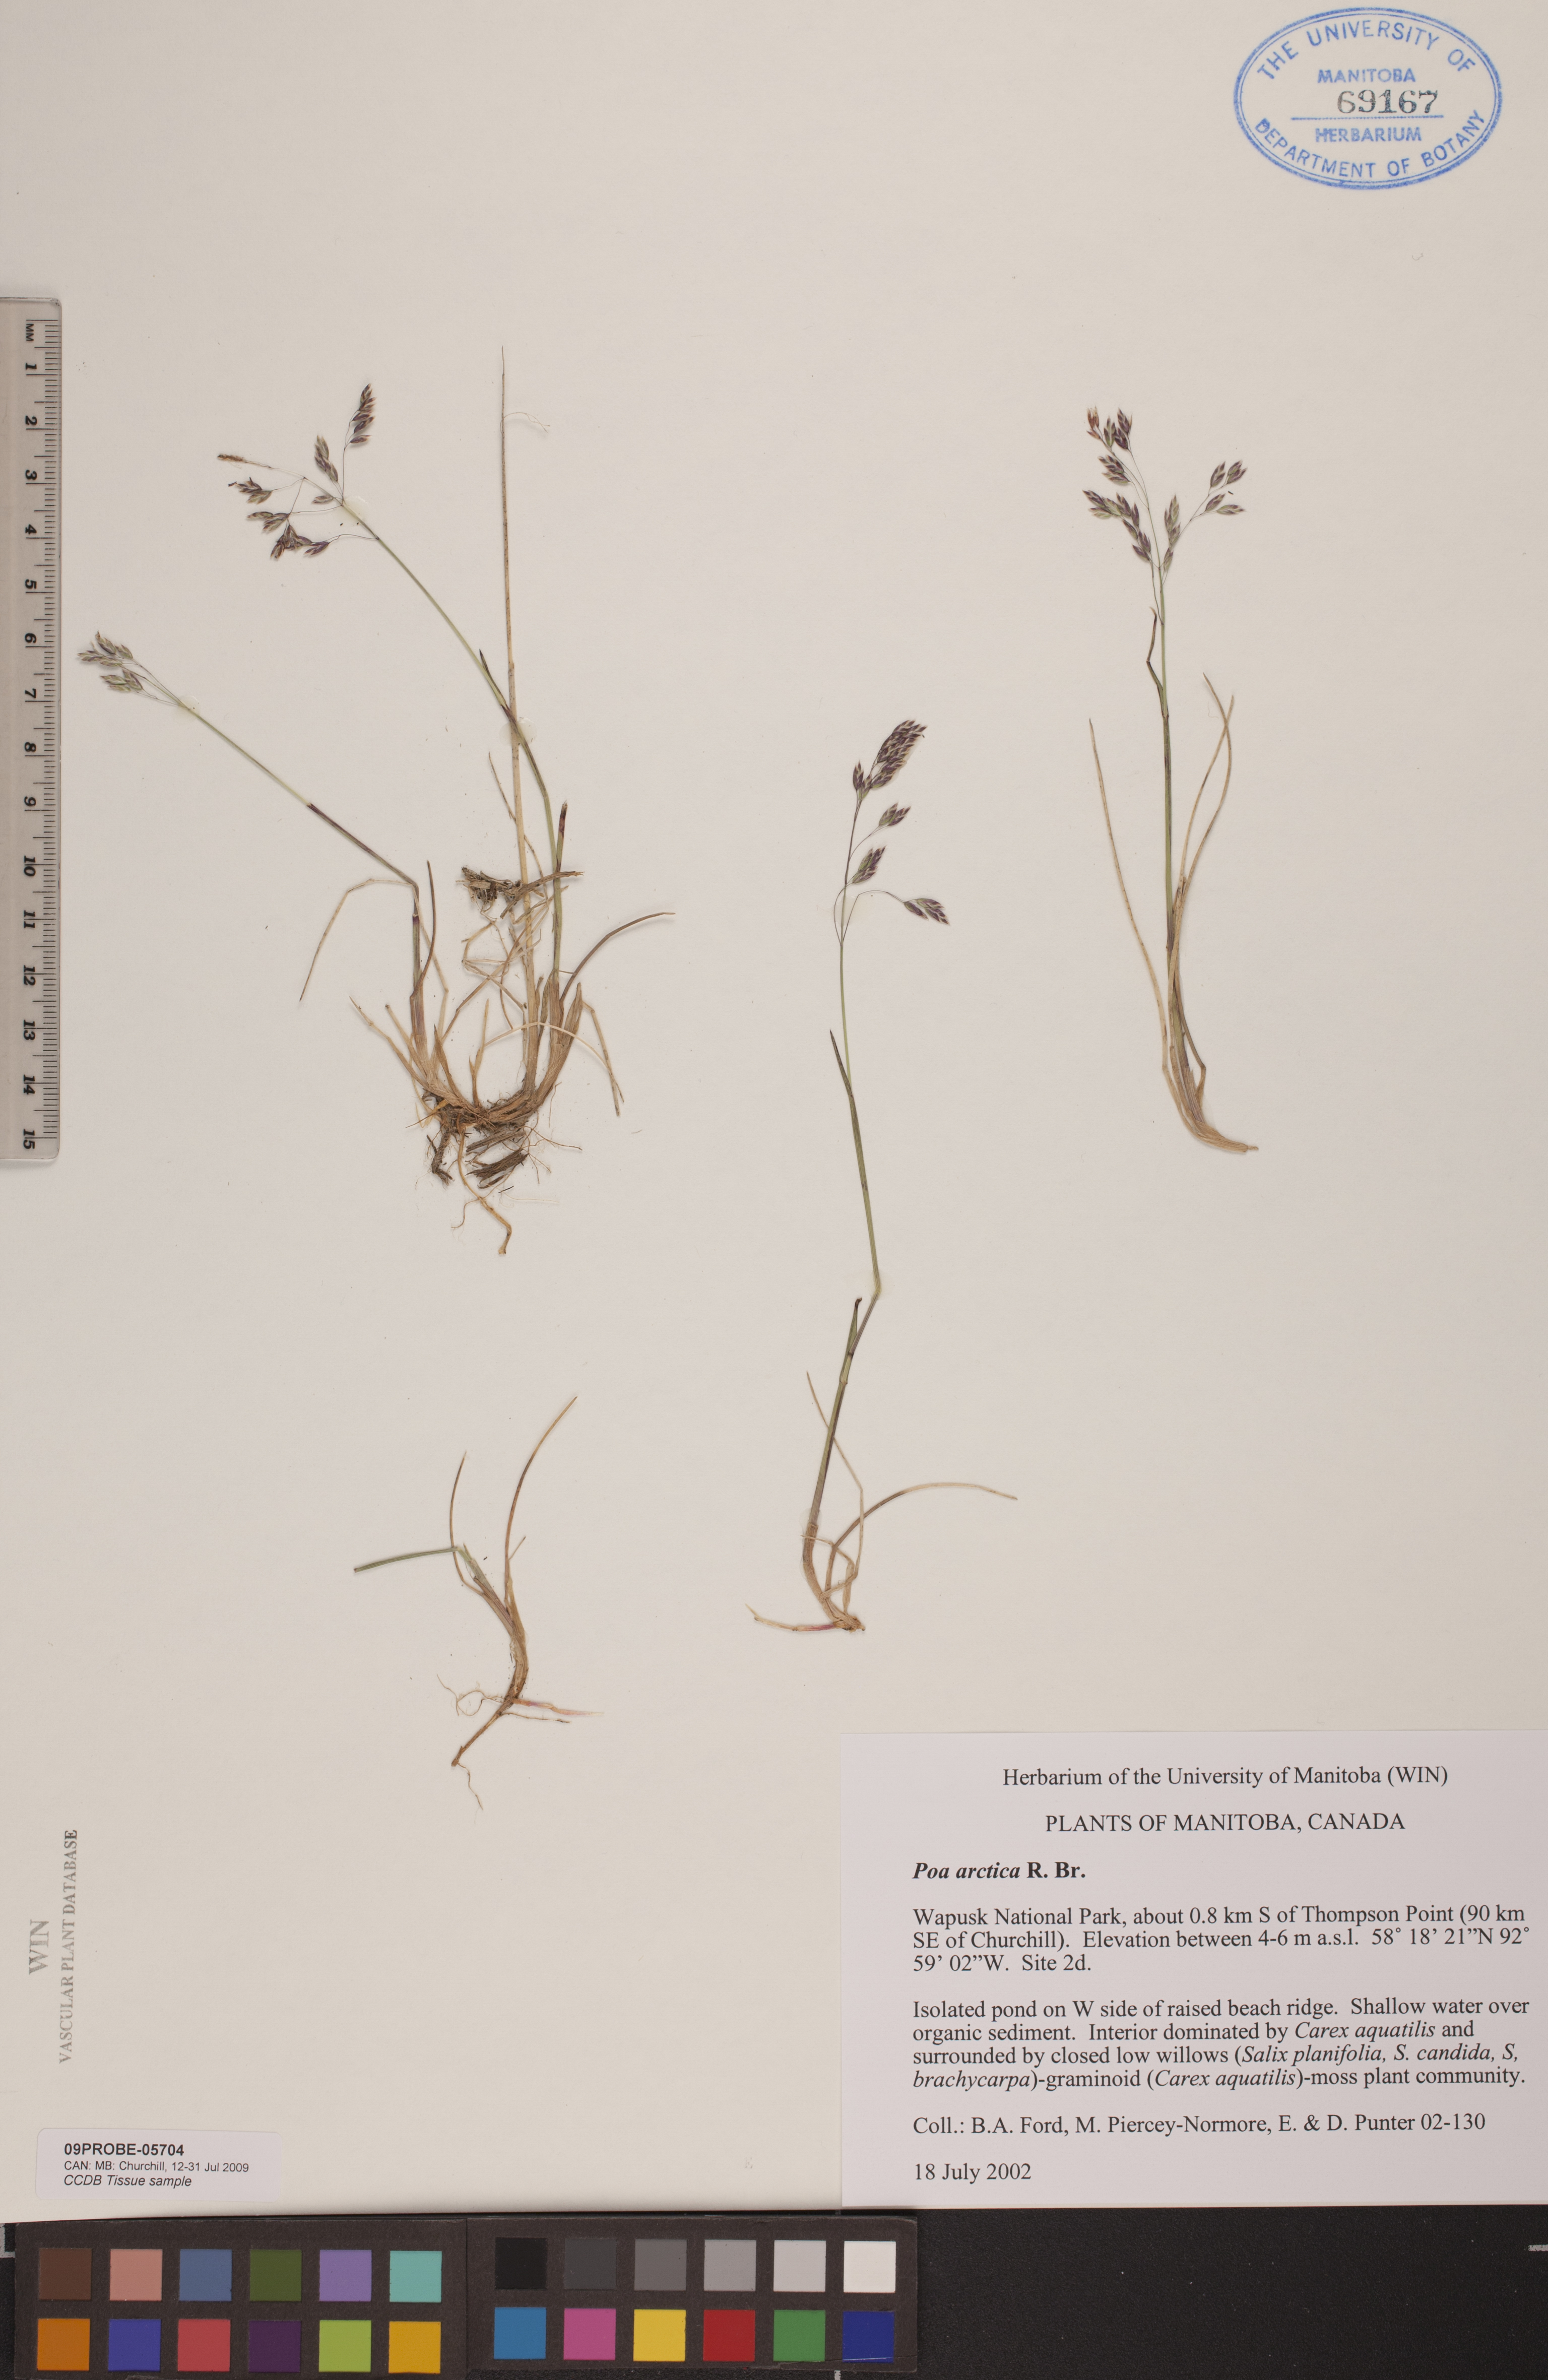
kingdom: Plantae
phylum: Tracheophyta
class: Liliopsida
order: Poales
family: Poaceae
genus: Poa
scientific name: Poa arctica
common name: Arctic bluegrass
